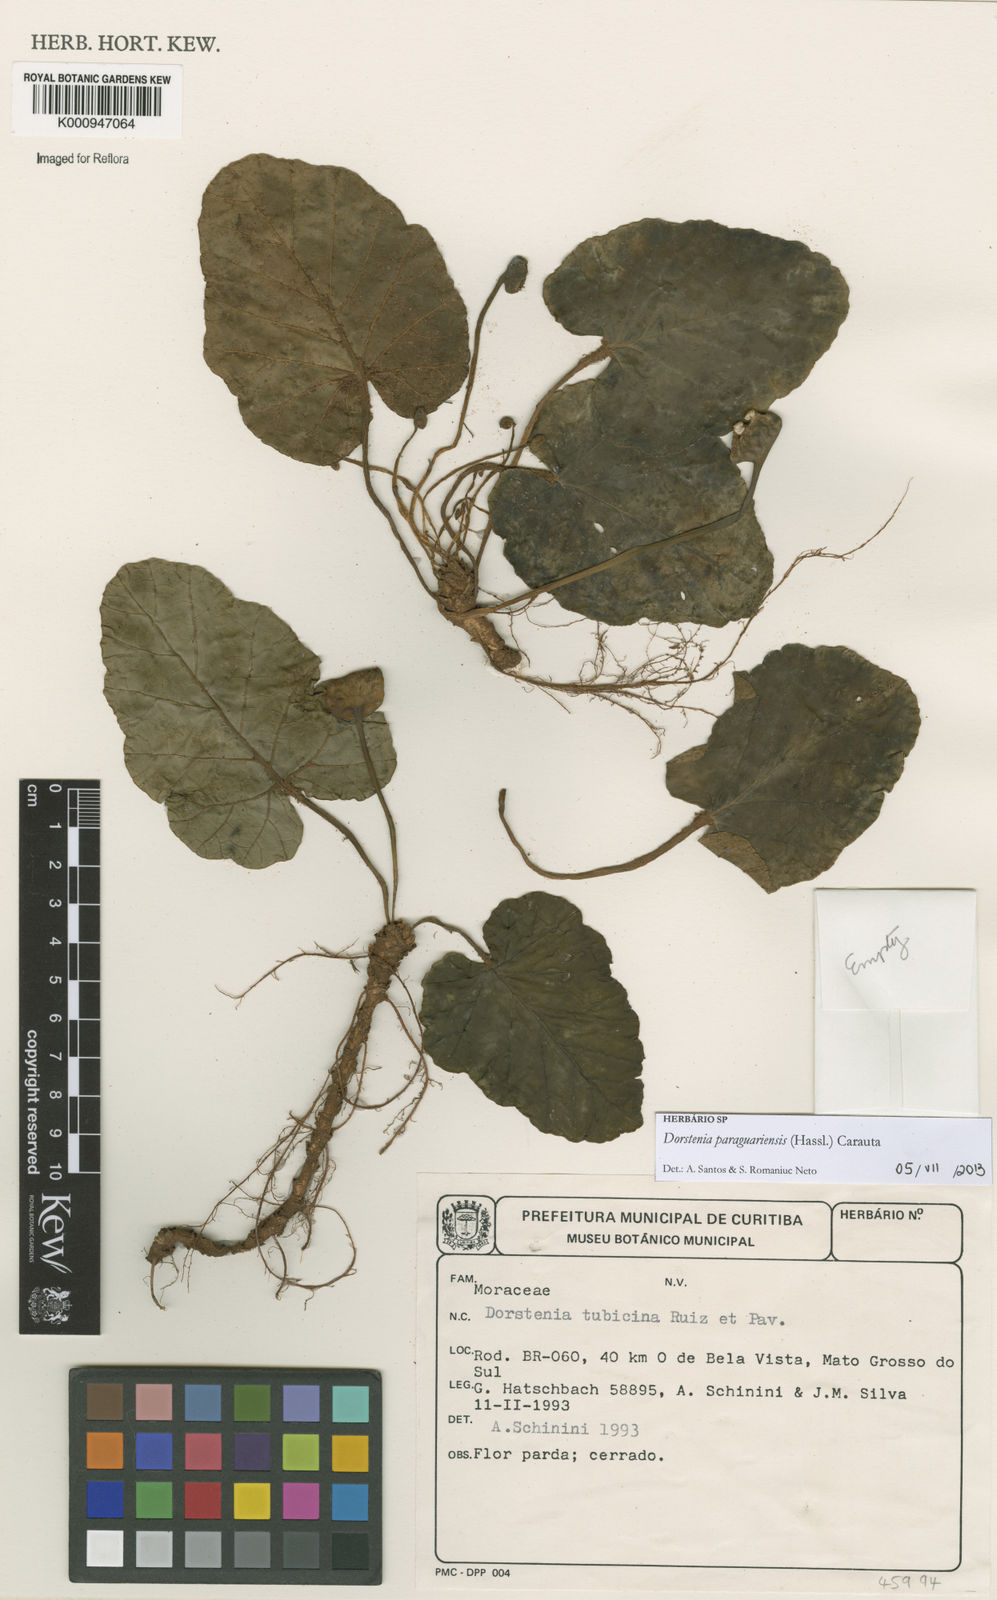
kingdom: Plantae
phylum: Tracheophyta
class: Magnoliopsida
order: Rosales
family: Moraceae
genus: Dorstenia
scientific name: Dorstenia cayapia
